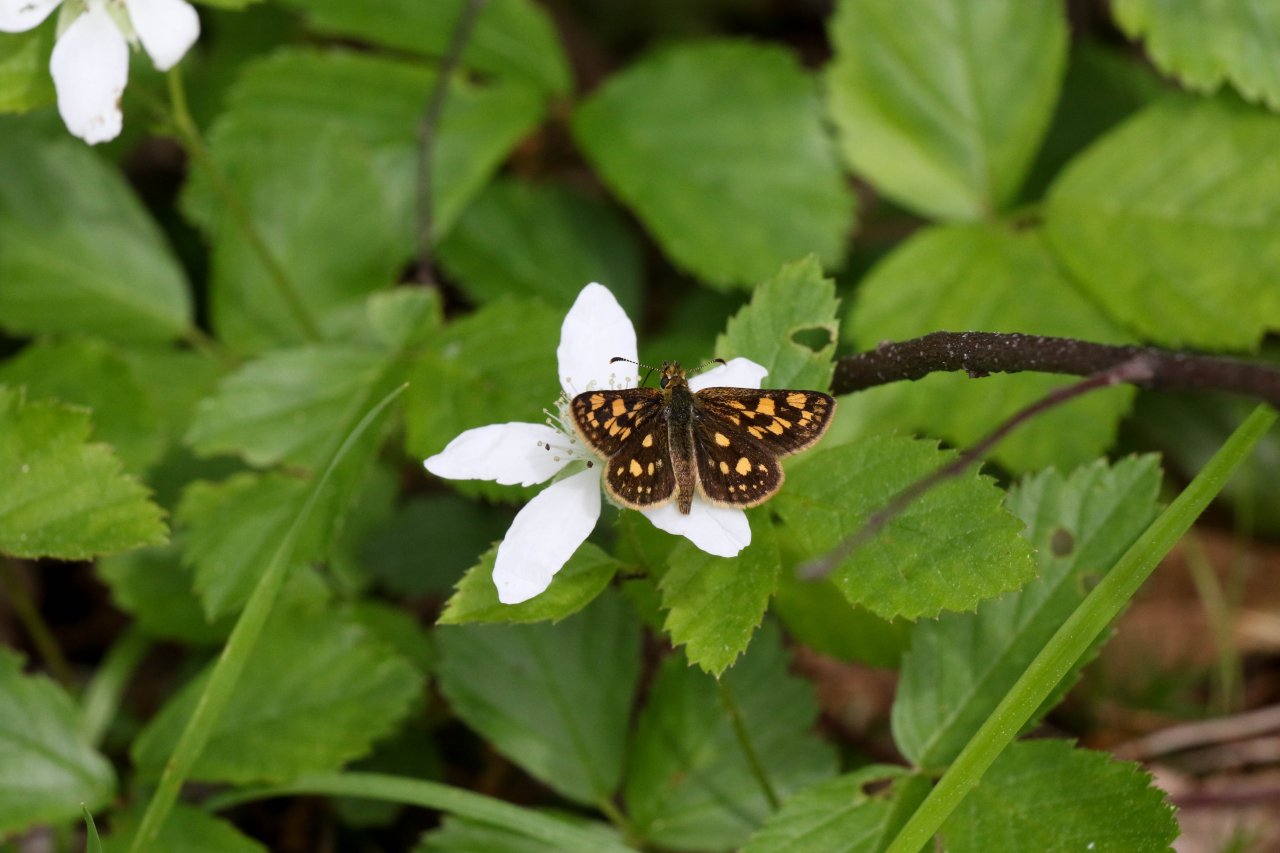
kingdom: Animalia
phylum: Arthropoda
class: Insecta
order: Lepidoptera
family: Hesperiidae
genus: Carterocephalus
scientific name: Carterocephalus palaemon
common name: Chequered Skipper
